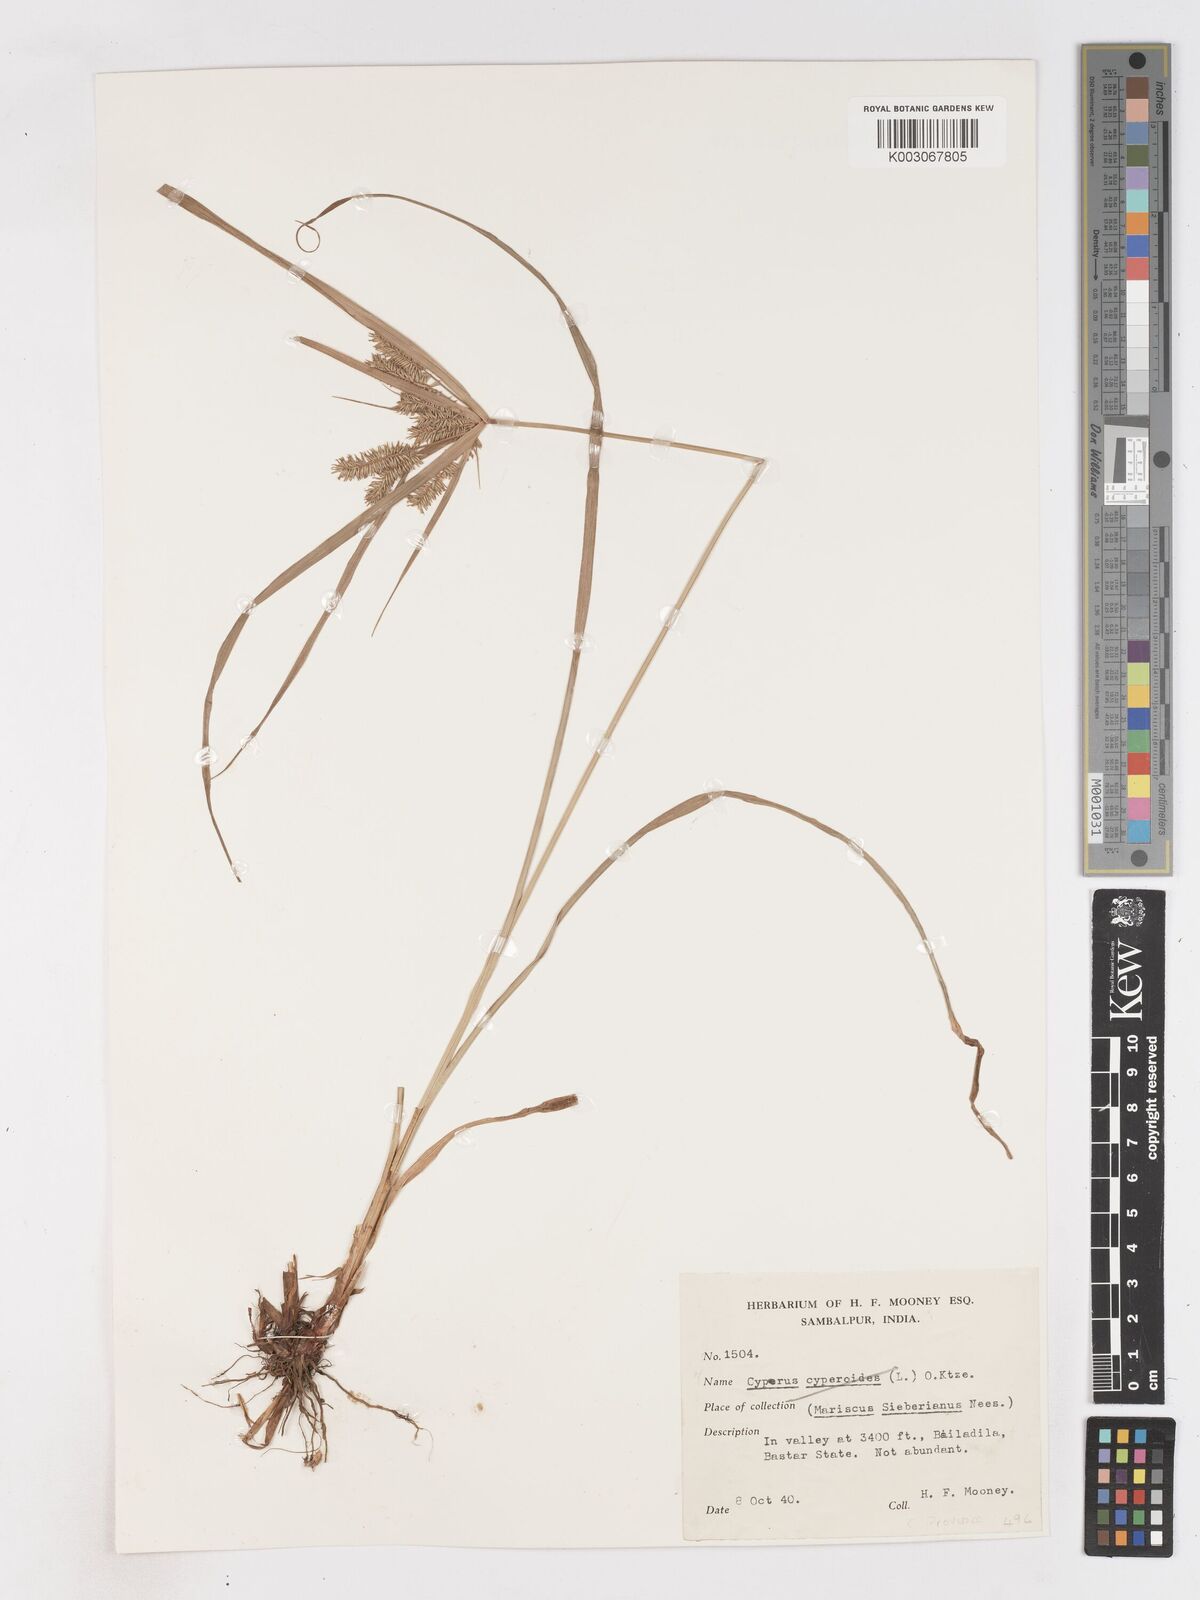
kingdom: Plantae
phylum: Tracheophyta
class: Liliopsida
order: Poales
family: Cyperaceae
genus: Cyperus
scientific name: Cyperus cyperoides
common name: Pacific island flat sedge
